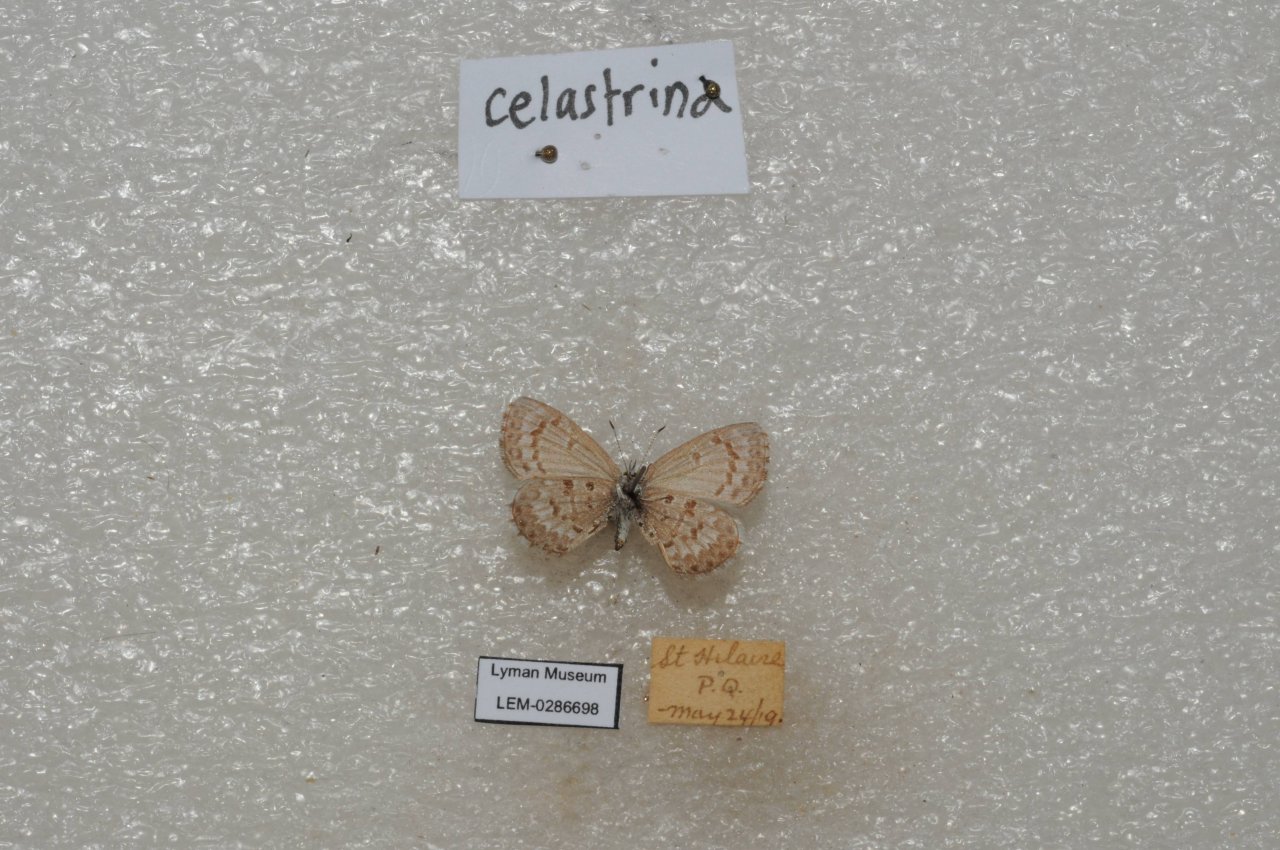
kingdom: Animalia
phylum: Arthropoda
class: Insecta
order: Lepidoptera
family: Lycaenidae
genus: Celastrina
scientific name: Celastrina lucia
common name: Northern Spring Azure
